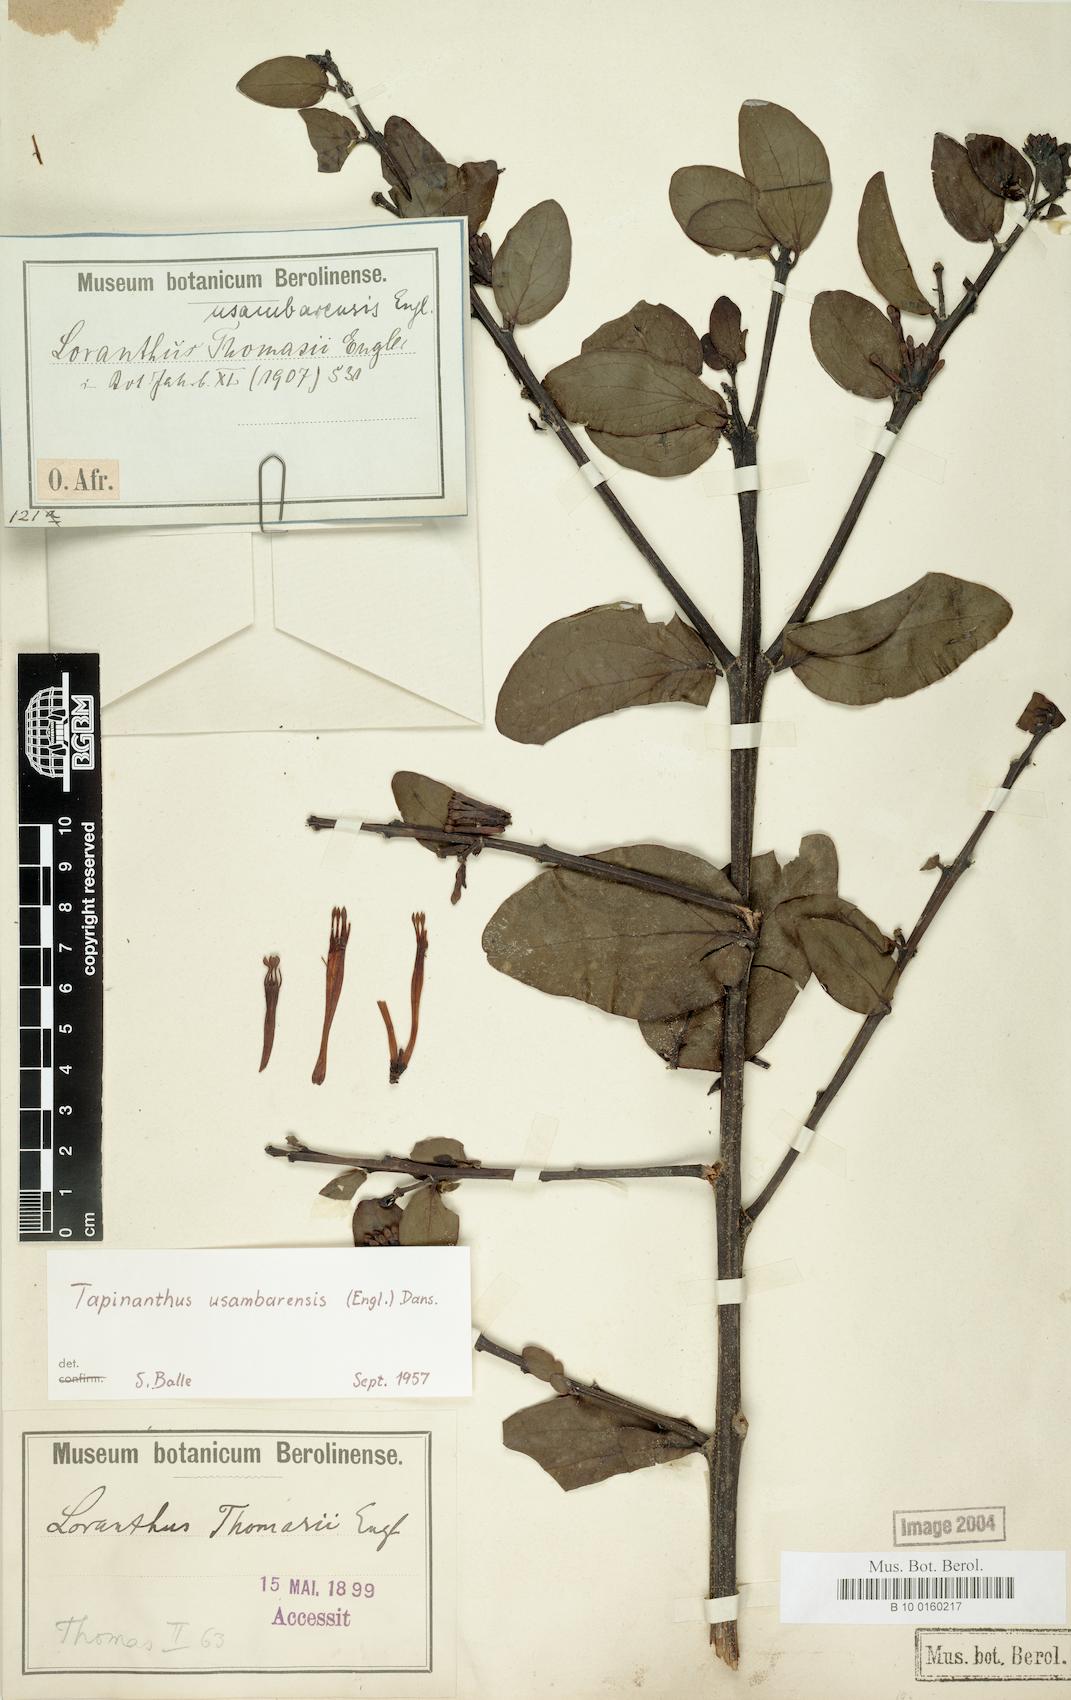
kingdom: Plantae
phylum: Tracheophyta
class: Magnoliopsida
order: Santalales
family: Loranthaceae
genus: Agelanthus
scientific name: Agelanthus subulatus
